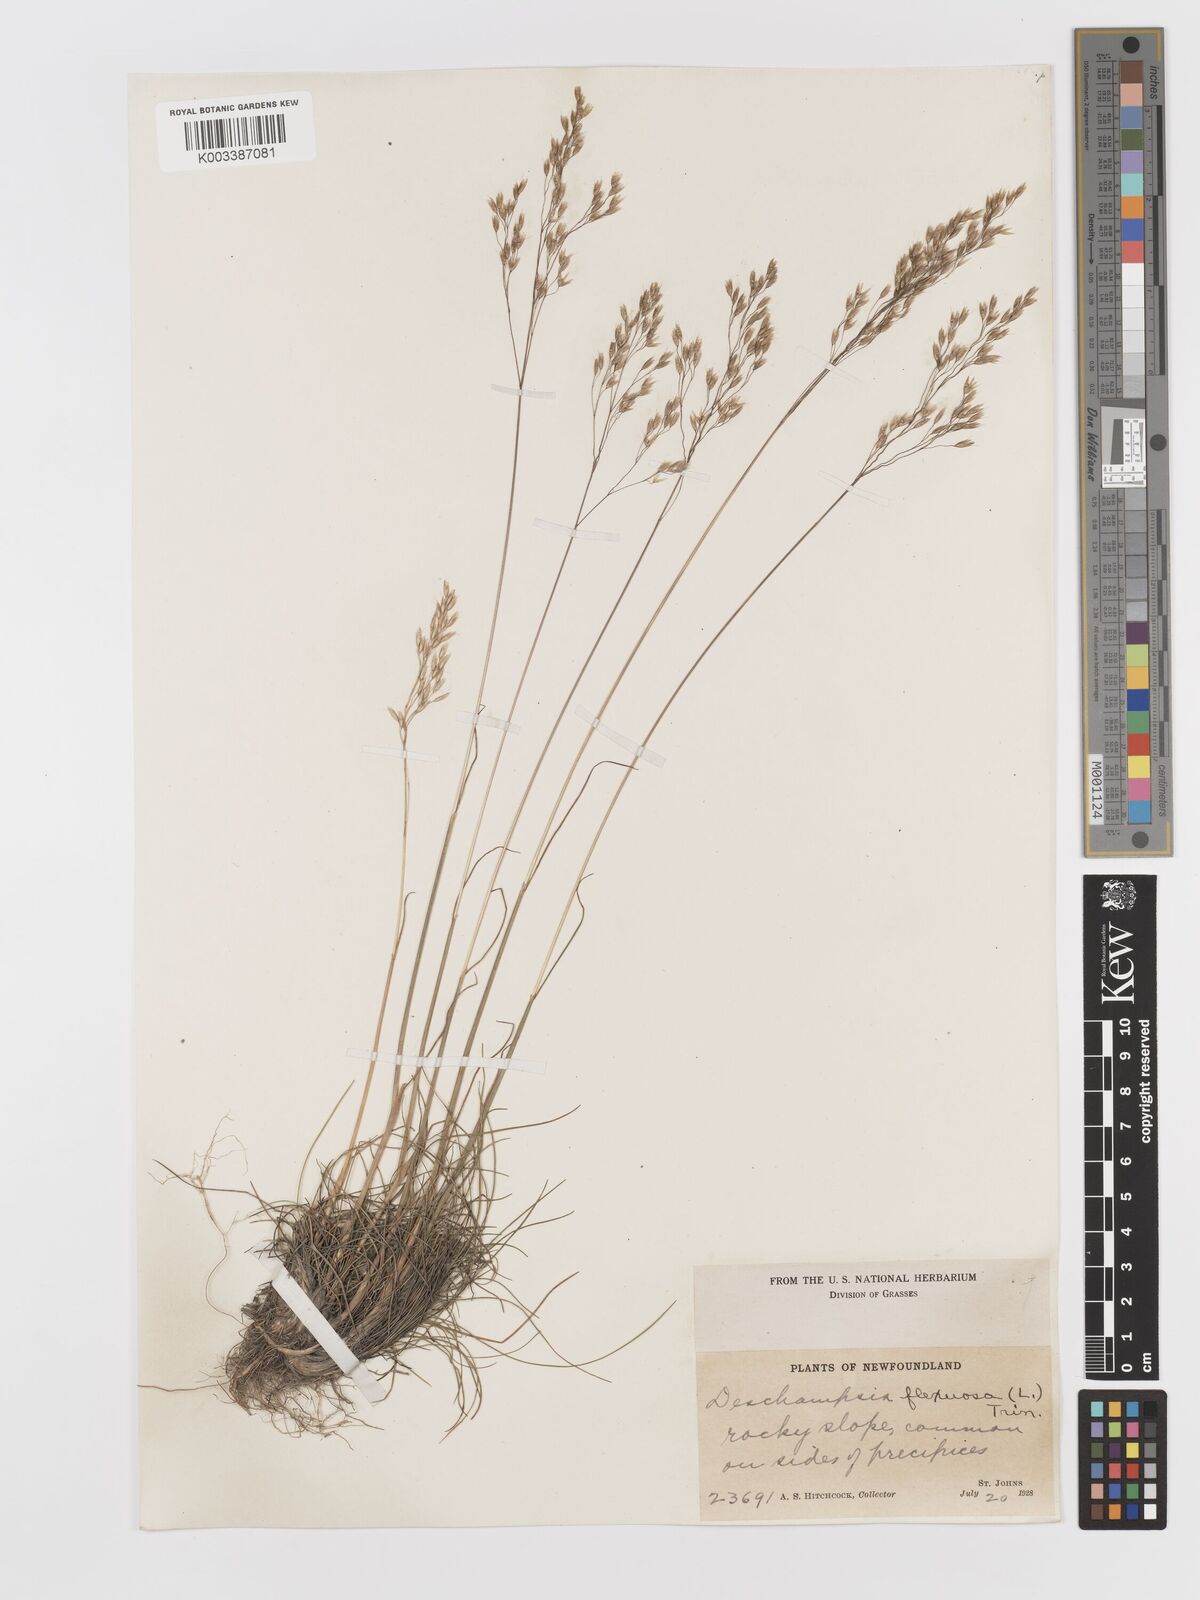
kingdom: Plantae
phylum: Tracheophyta
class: Liliopsida
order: Poales
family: Poaceae
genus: Avenella
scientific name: Avenella flexuosa
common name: Wavy hairgrass
